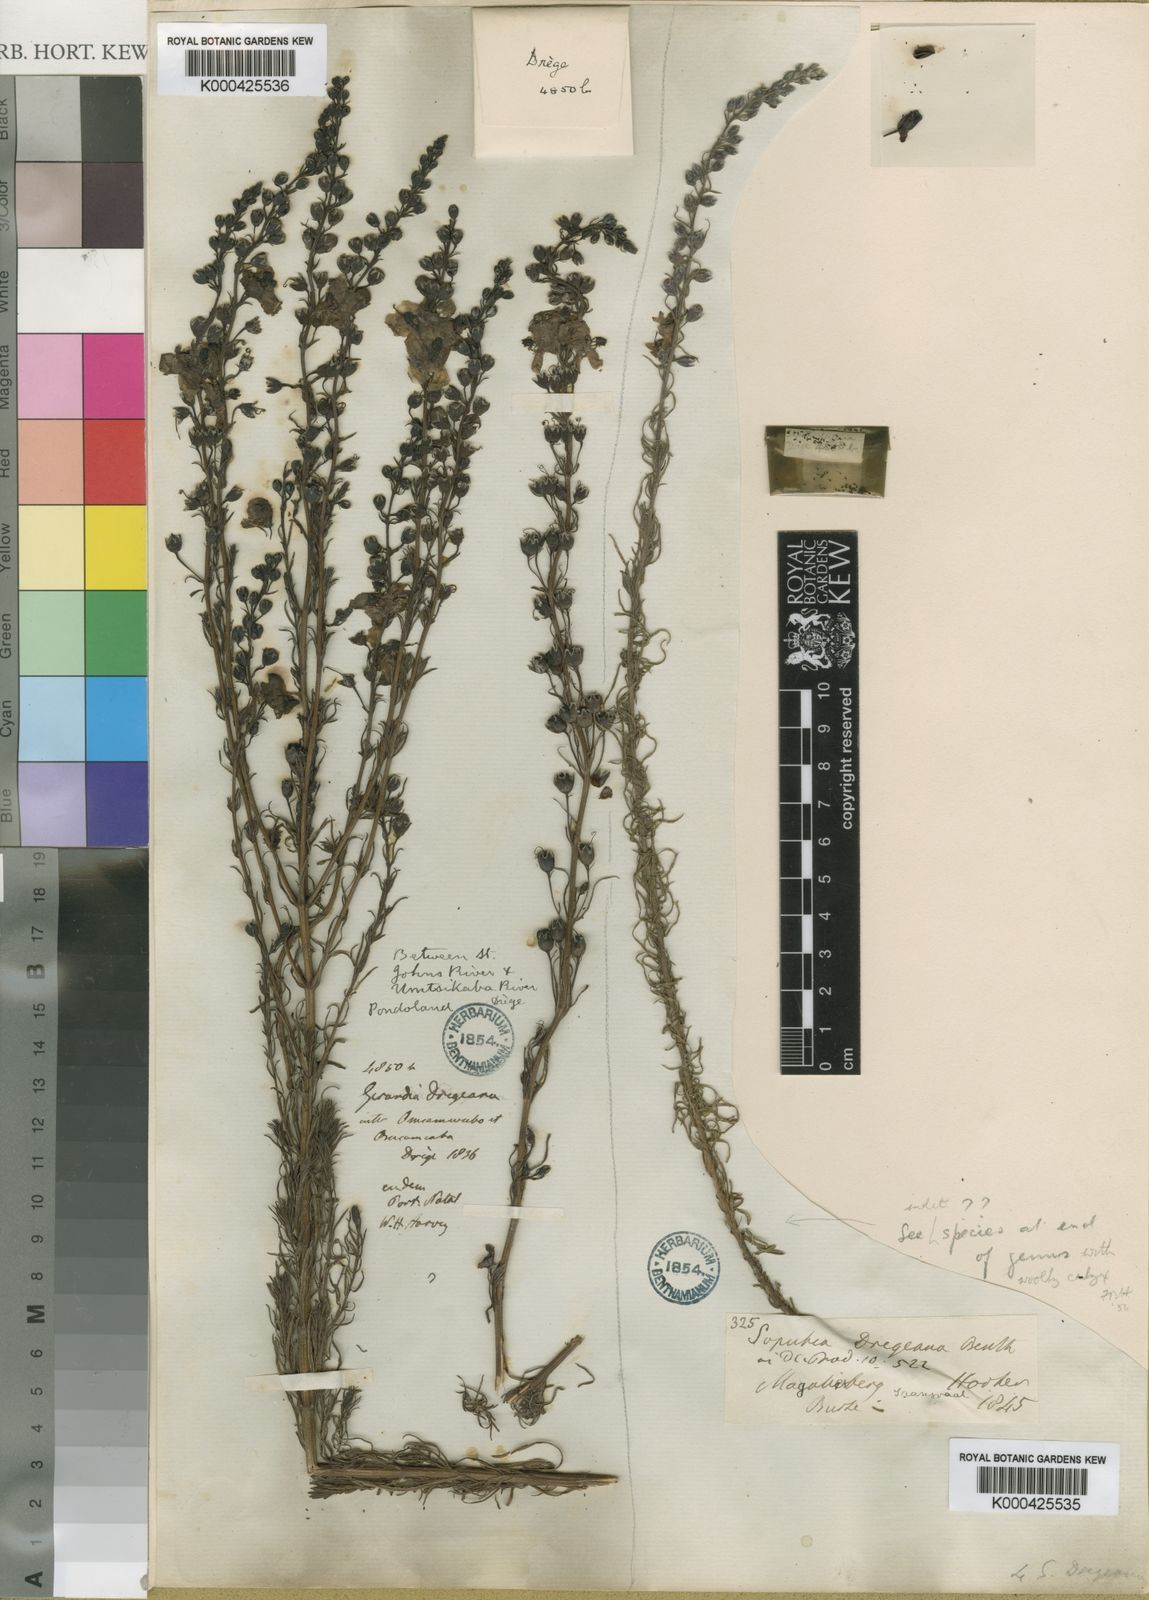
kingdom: Plantae
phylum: Tracheophyta
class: Magnoliopsida
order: Lamiales
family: Orobanchaceae
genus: Sopubia
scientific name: Sopubia simplex
